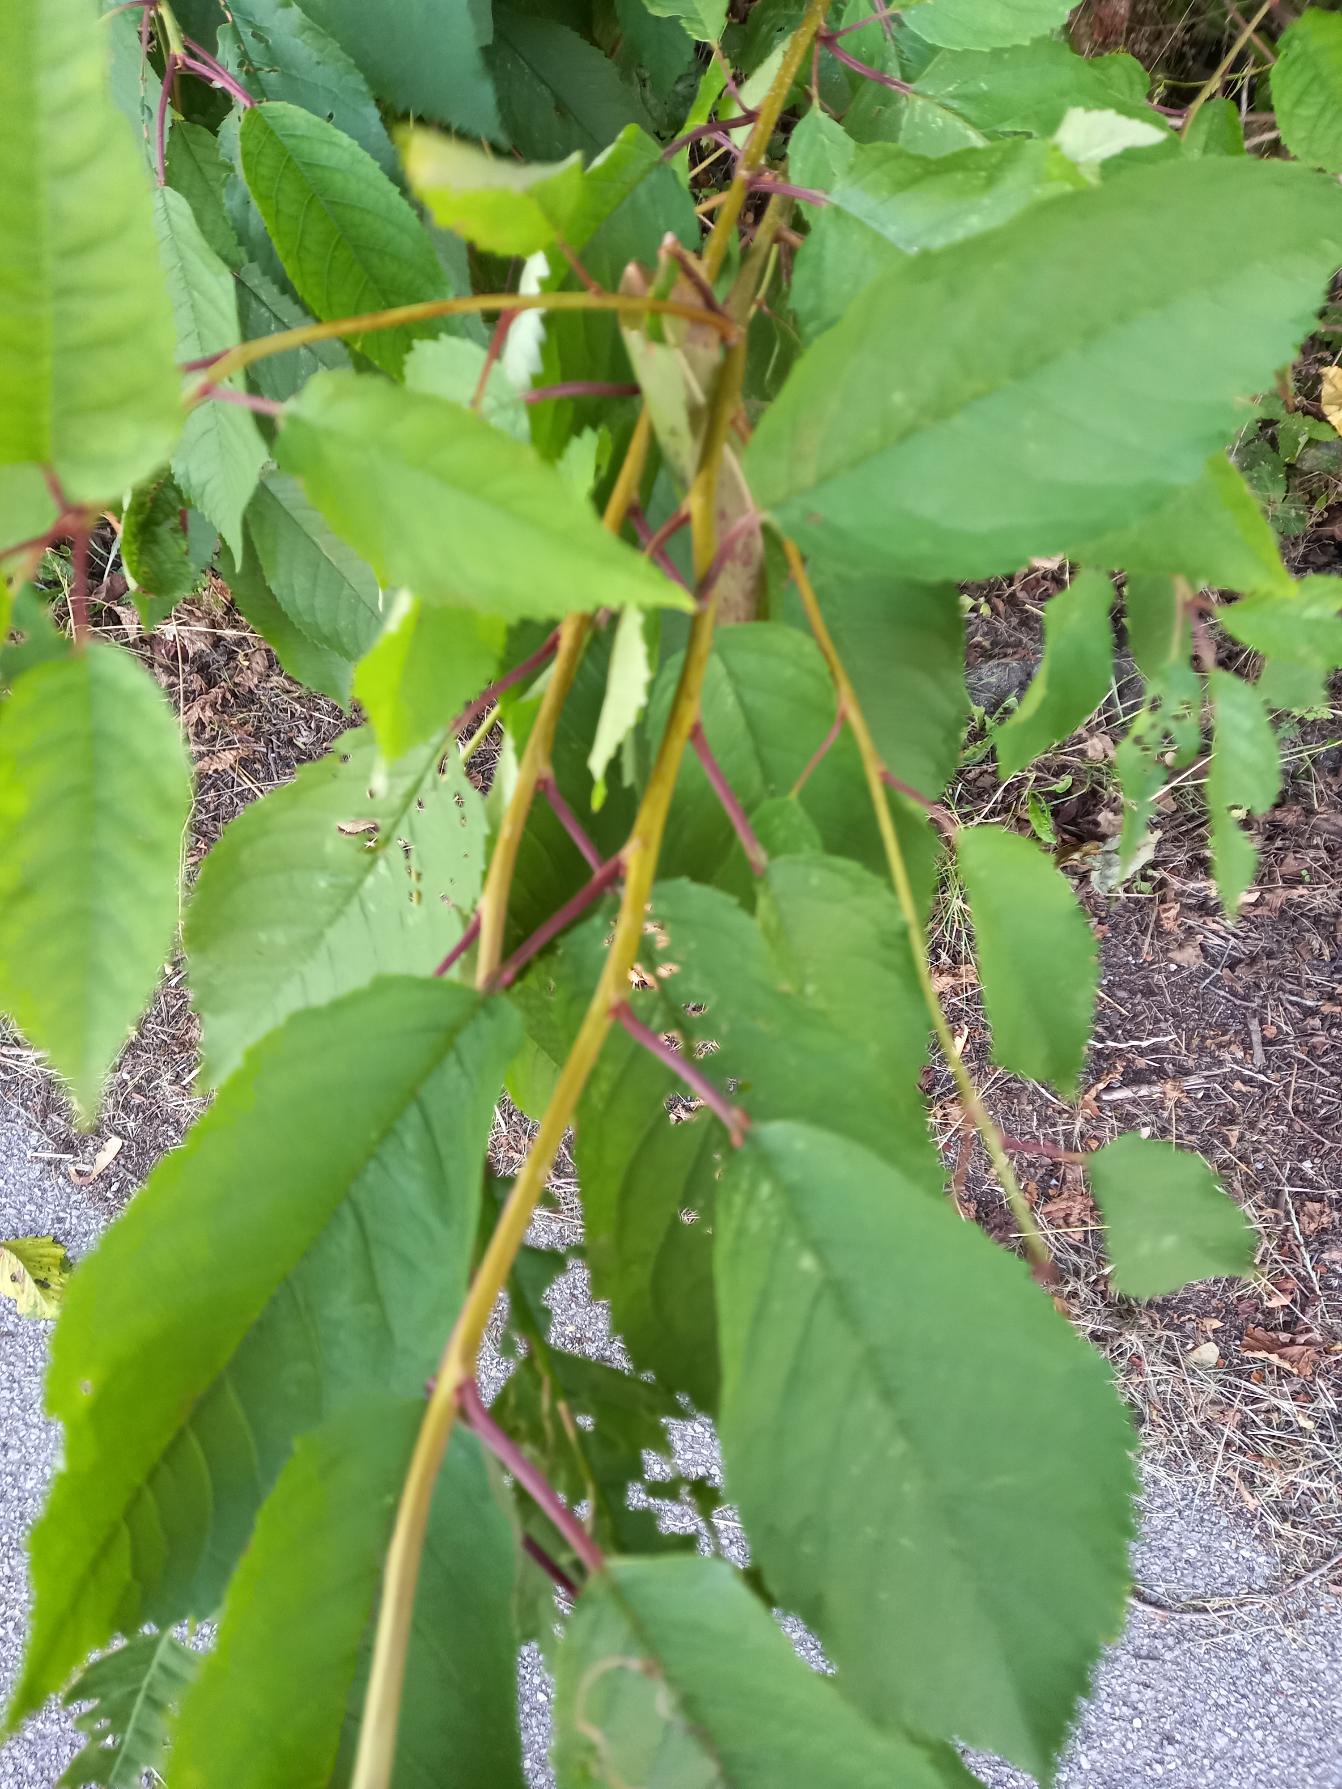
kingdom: Plantae
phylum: Tracheophyta
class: Magnoliopsida
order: Rosales
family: Rosaceae
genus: Prunus
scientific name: Prunus avium
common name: Fugle-kirsebær
